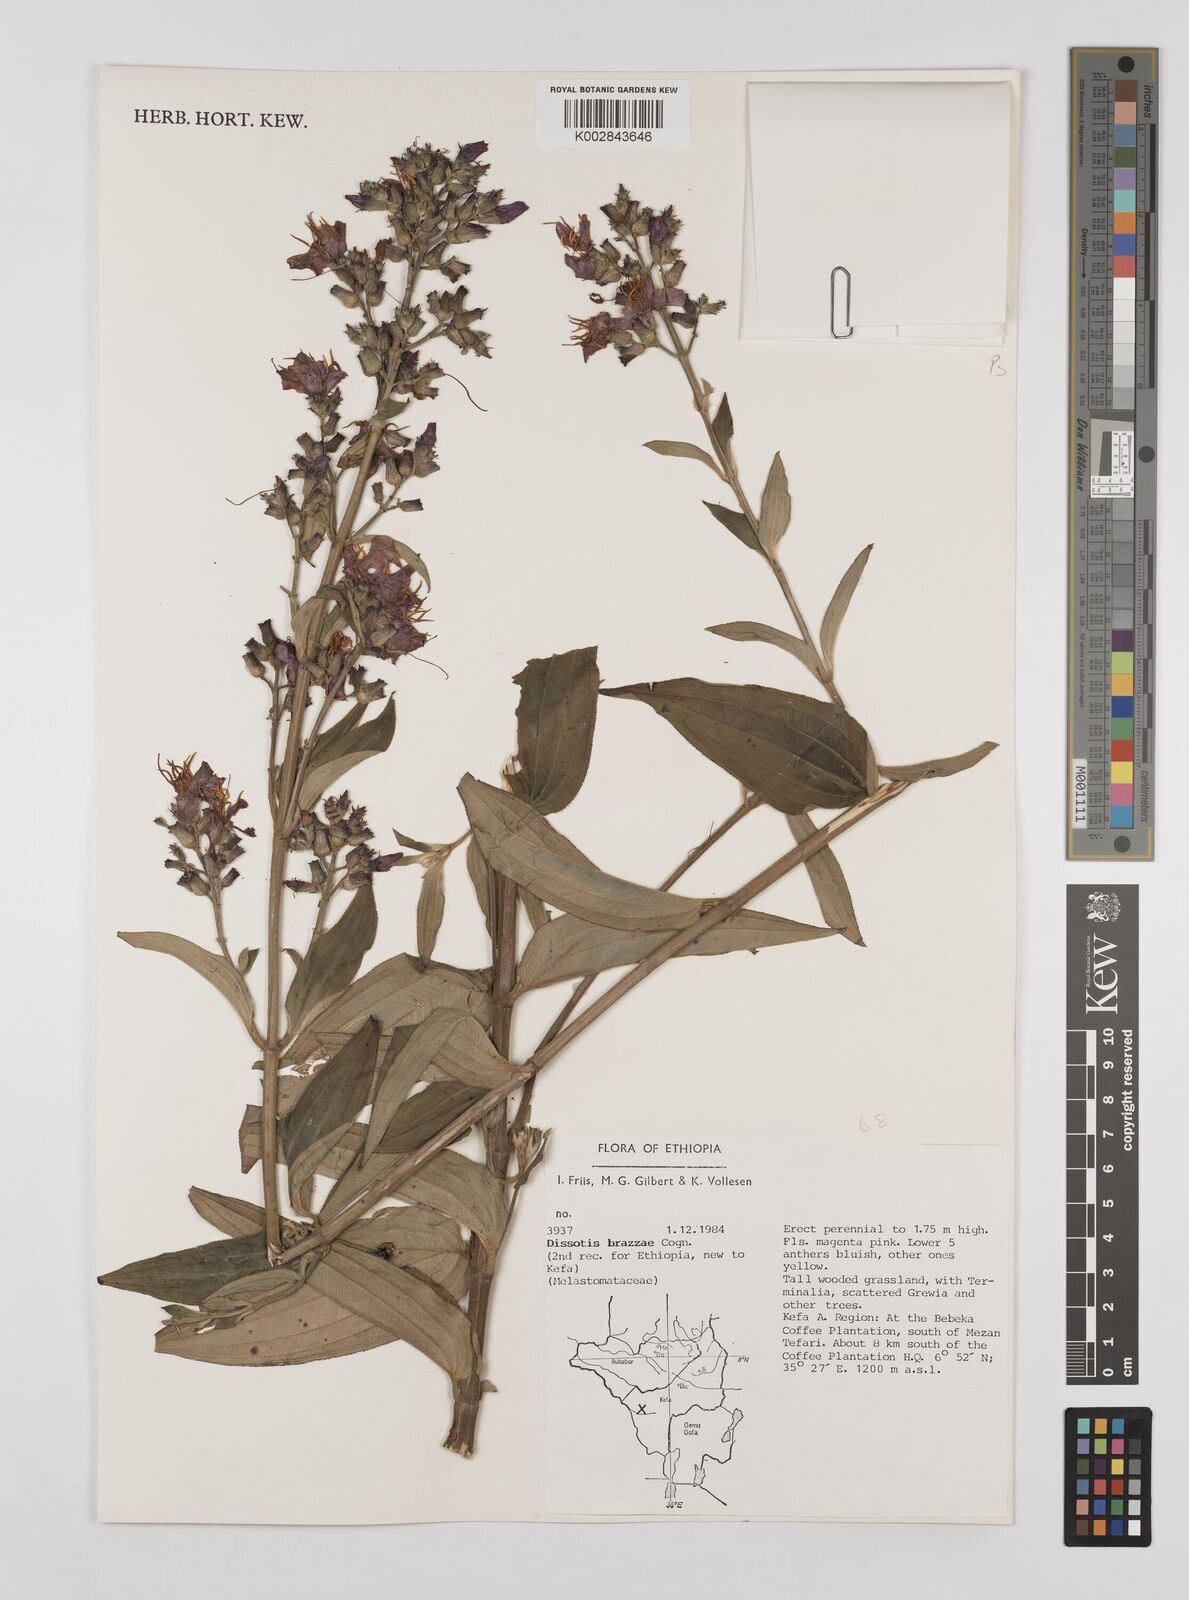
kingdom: Plantae
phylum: Tracheophyta
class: Magnoliopsida
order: Myrtales
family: Melastomataceae
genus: Dupineta
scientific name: Dupineta brazzae
